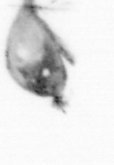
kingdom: Animalia
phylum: Arthropoda
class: Copepoda
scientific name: Copepoda
